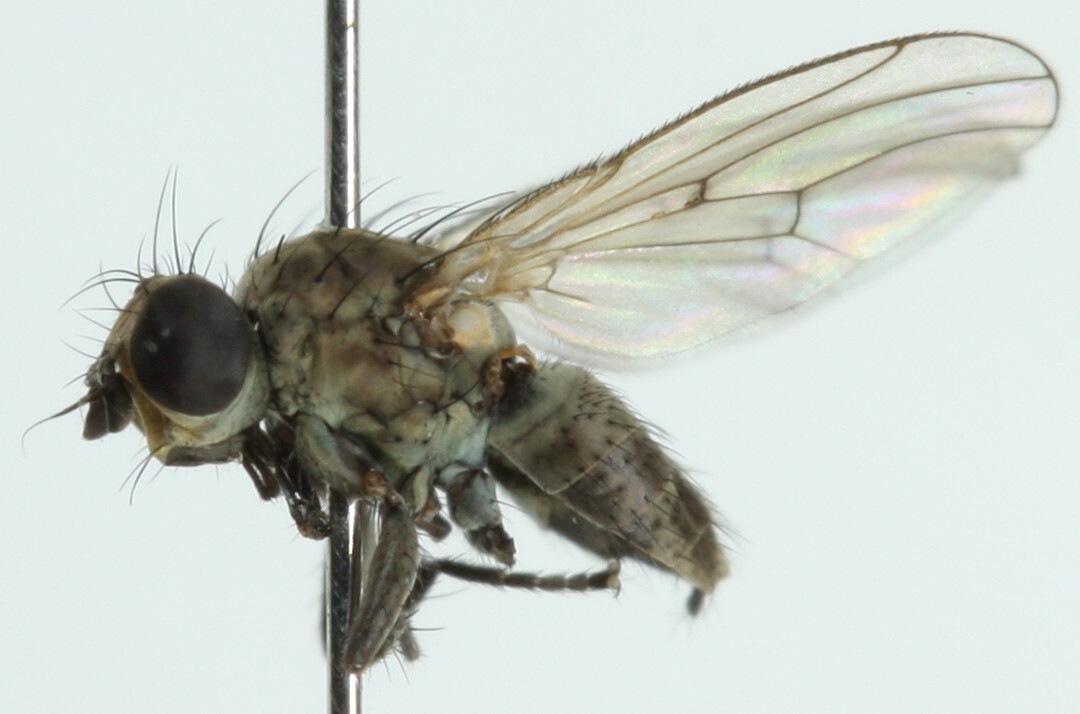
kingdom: Animalia
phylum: Arthropoda
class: Insecta
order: Diptera
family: Muscidae
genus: Schoenomyza
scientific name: Schoenomyza litorella
